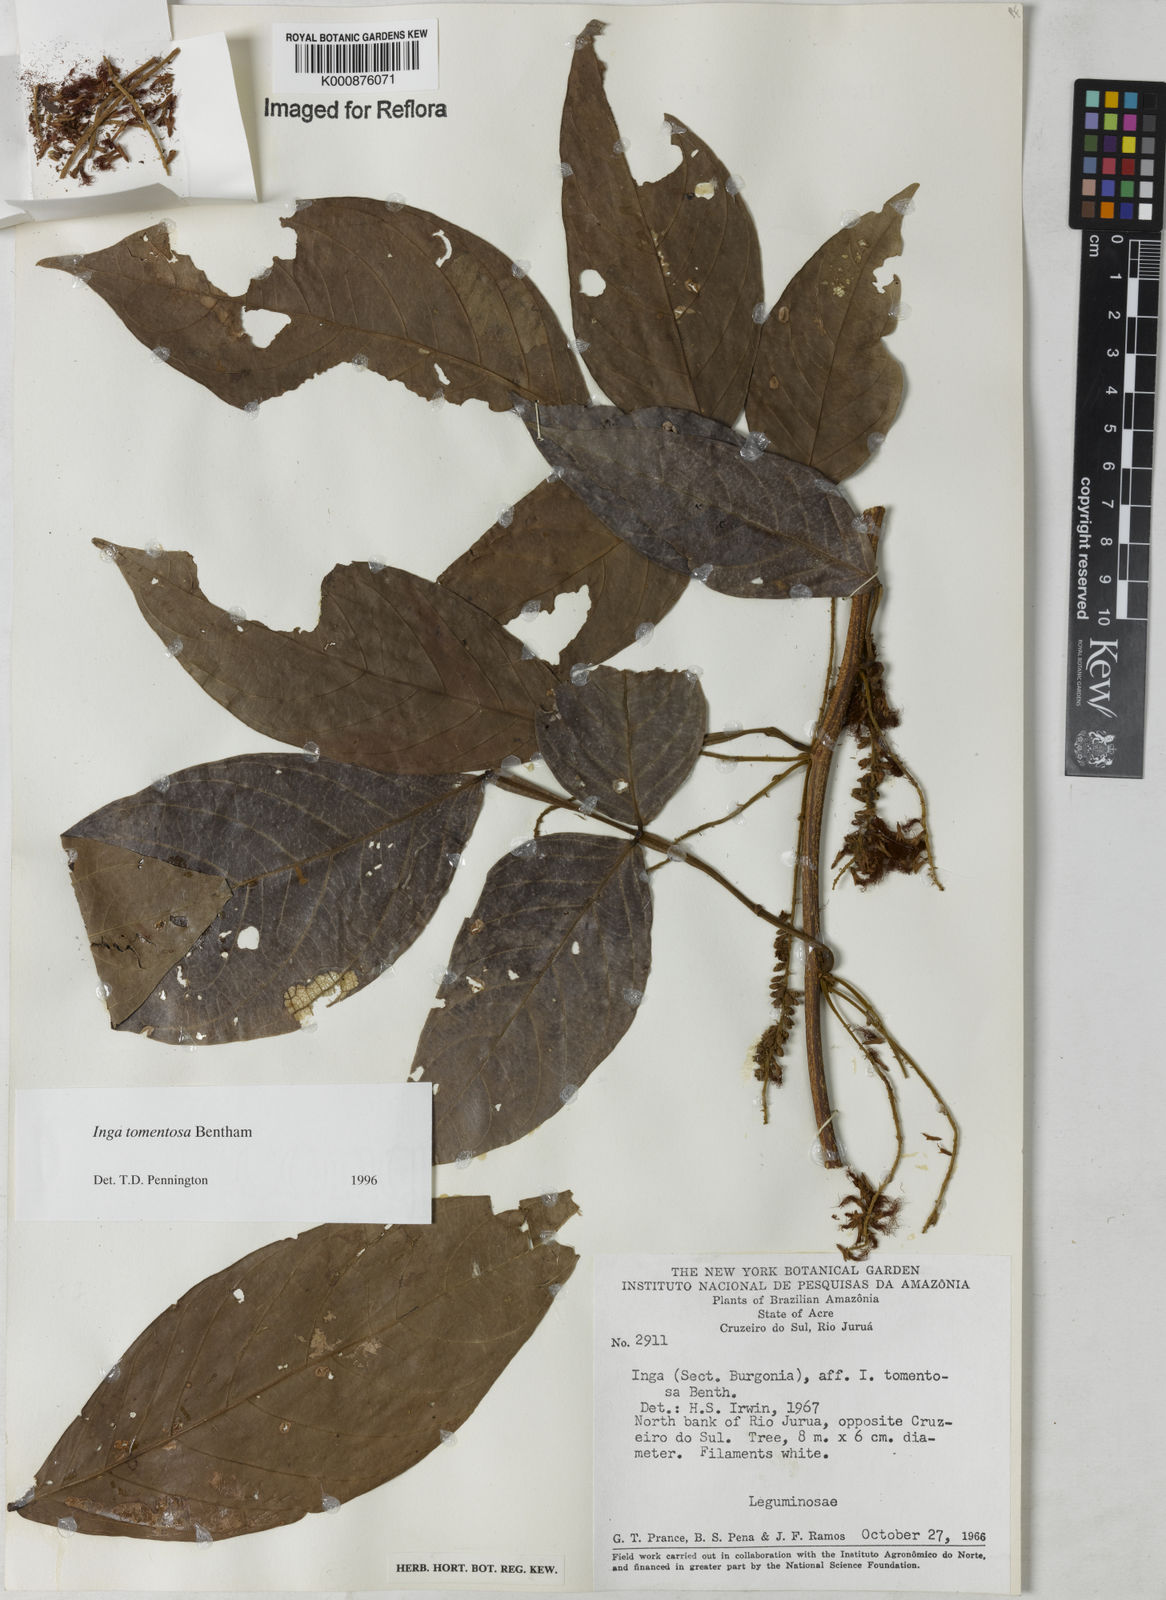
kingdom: Plantae
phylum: Tracheophyta
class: Magnoliopsida
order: Fabales
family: Fabaceae
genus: Inga
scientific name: Inga tomentosa
